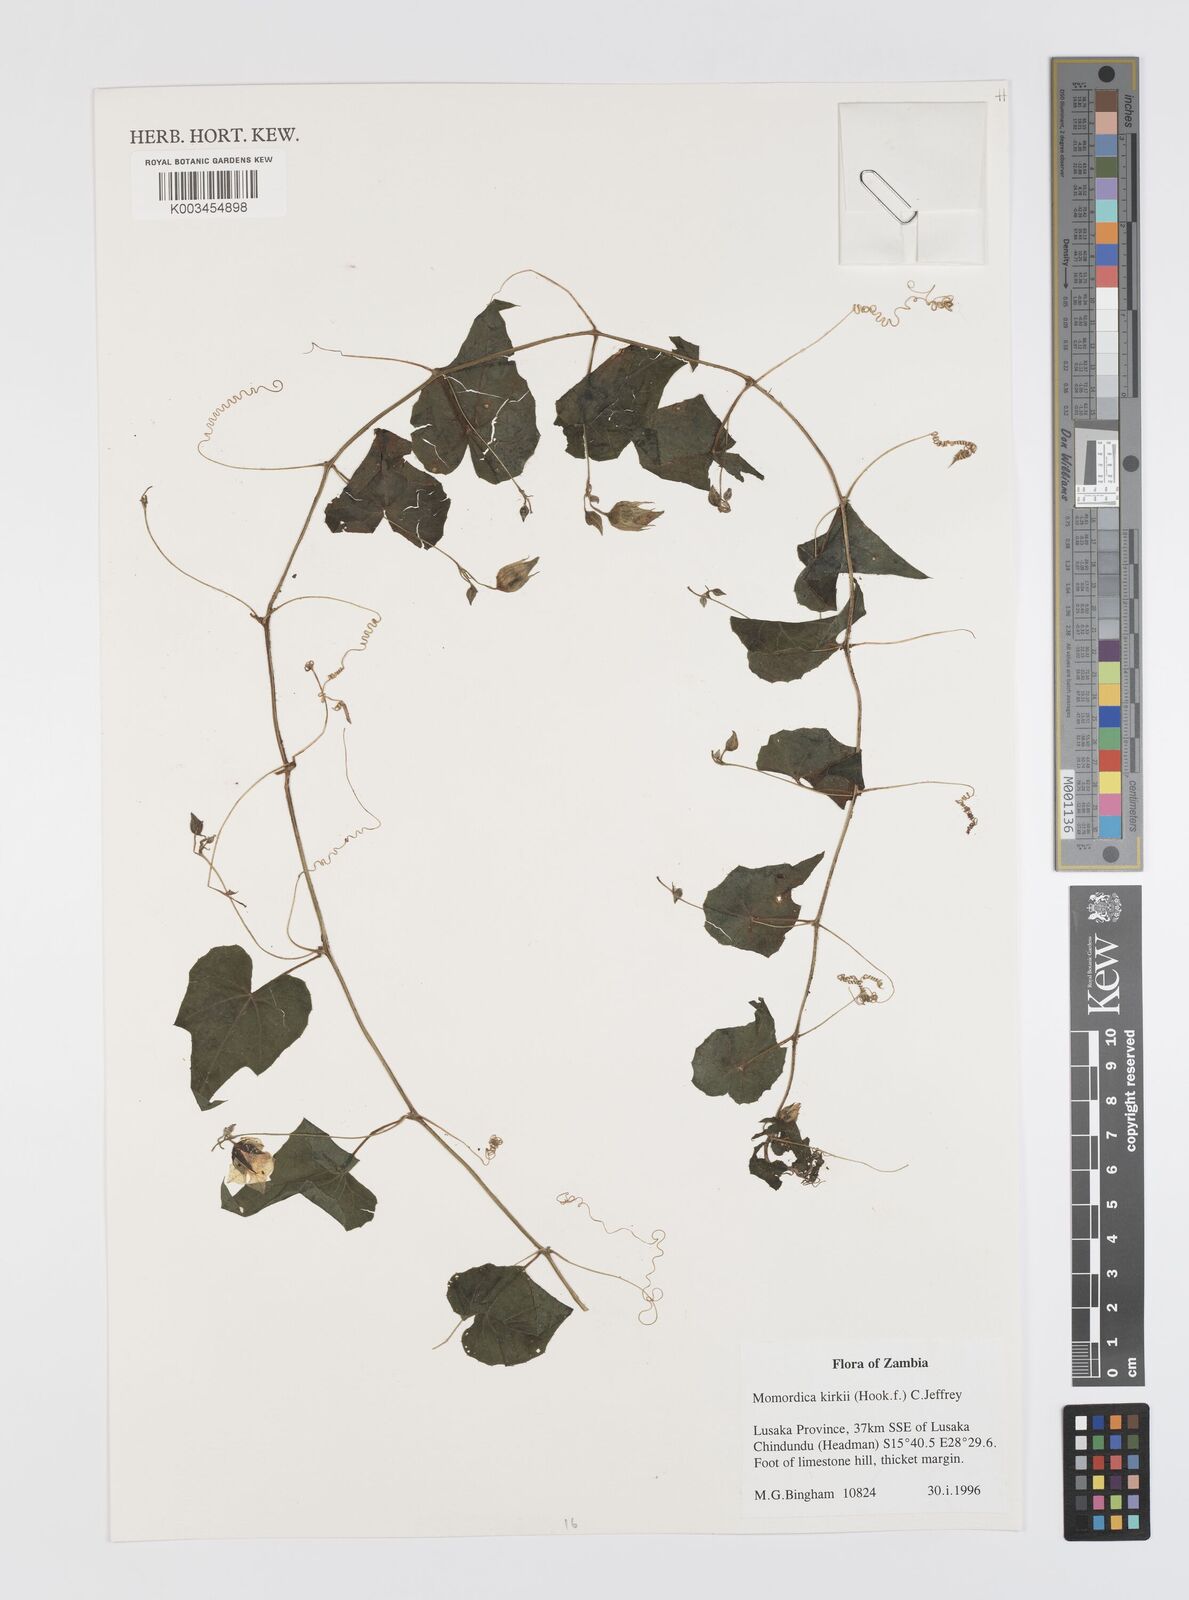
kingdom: Plantae
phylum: Tracheophyta
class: Magnoliopsida
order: Cucurbitales
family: Cucurbitaceae
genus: Momordica
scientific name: Momordica kirkii
